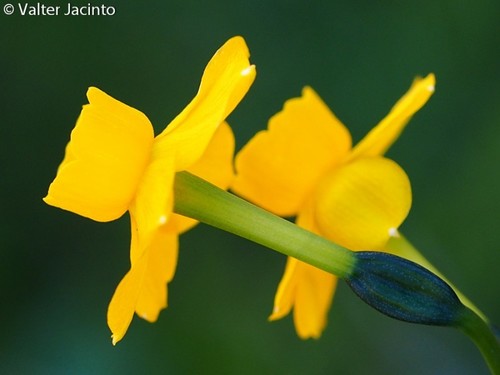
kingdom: Plantae
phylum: Tracheophyta
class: Liliopsida
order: Asparagales
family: Amaryllidaceae
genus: Narcissus
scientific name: Narcissus
